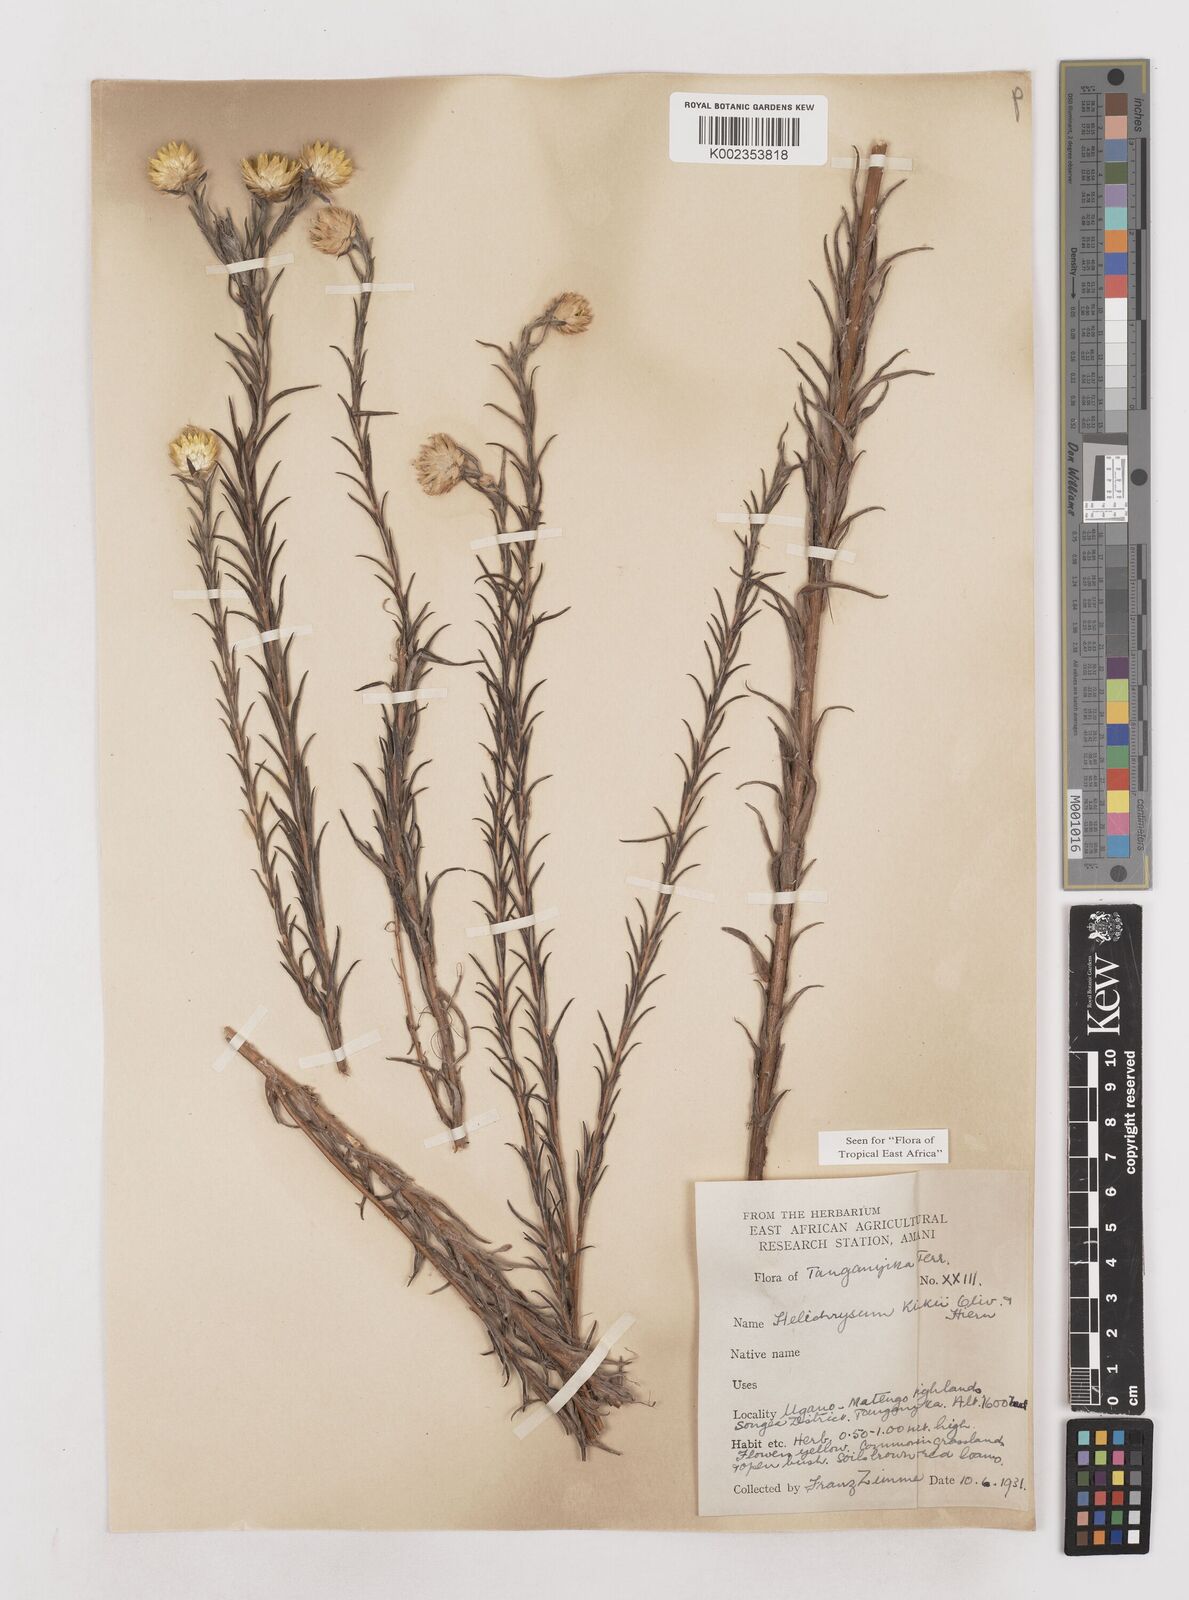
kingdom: Plantae
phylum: Tracheophyta
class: Magnoliopsida
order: Asterales
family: Asteraceae
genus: Helichrysum
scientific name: Helichrysum kirkii
